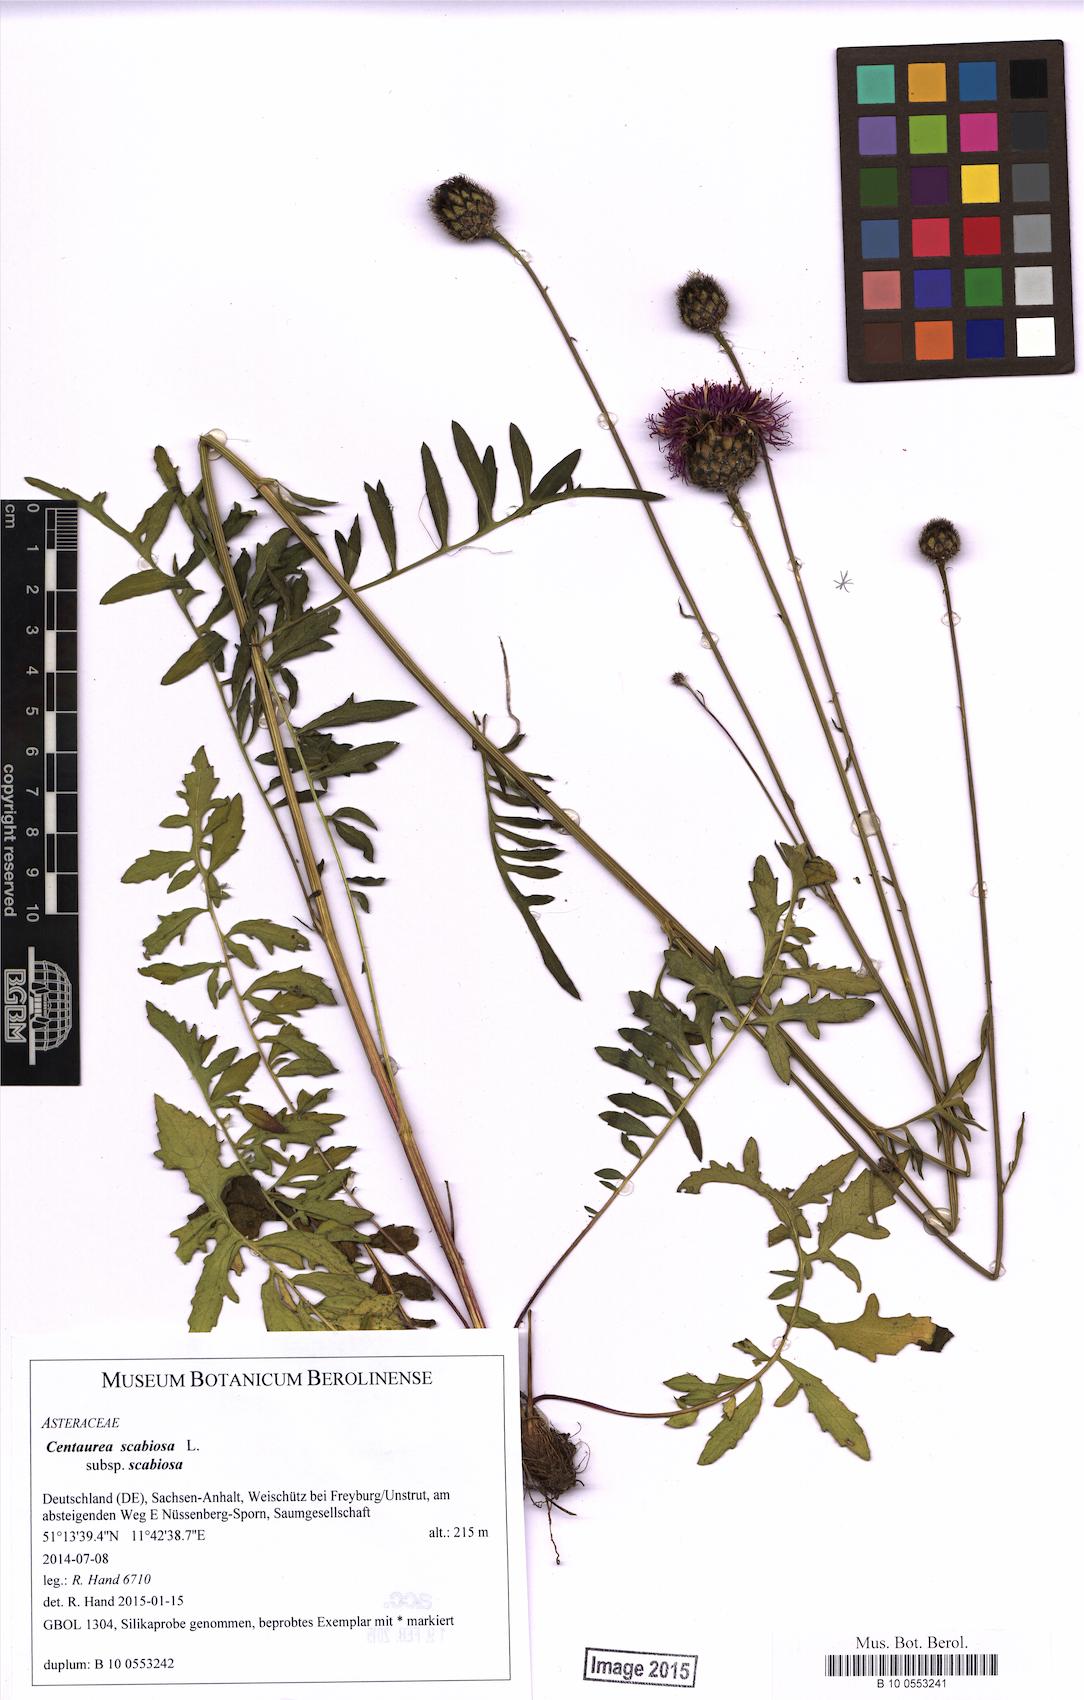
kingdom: Plantae
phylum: Tracheophyta
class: Magnoliopsida
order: Asterales
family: Asteraceae
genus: Centaurea
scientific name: Centaurea scabiosa
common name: Greater knapweed
